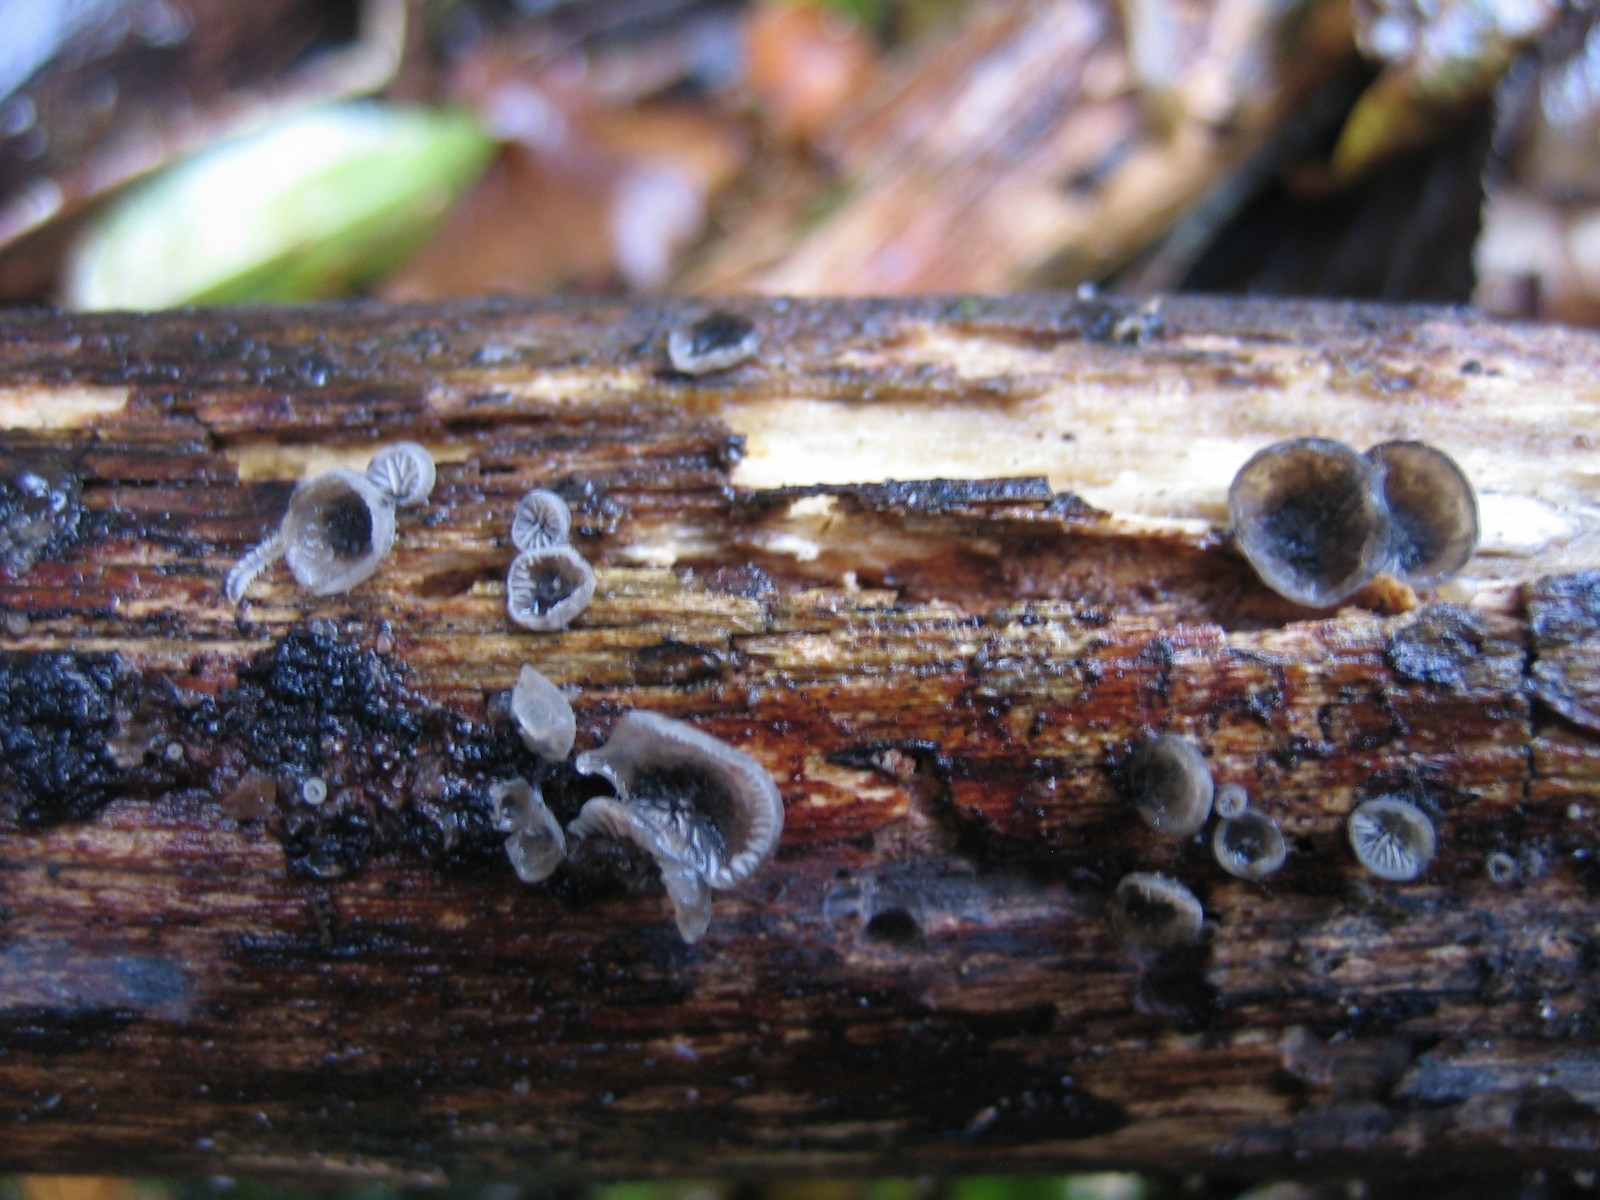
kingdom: Fungi
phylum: Basidiomycota
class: Agaricomycetes
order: Agaricales
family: Pleurotaceae
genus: Resupinatus
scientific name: Resupinatus trichotis
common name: mørkfiltet barkhat
